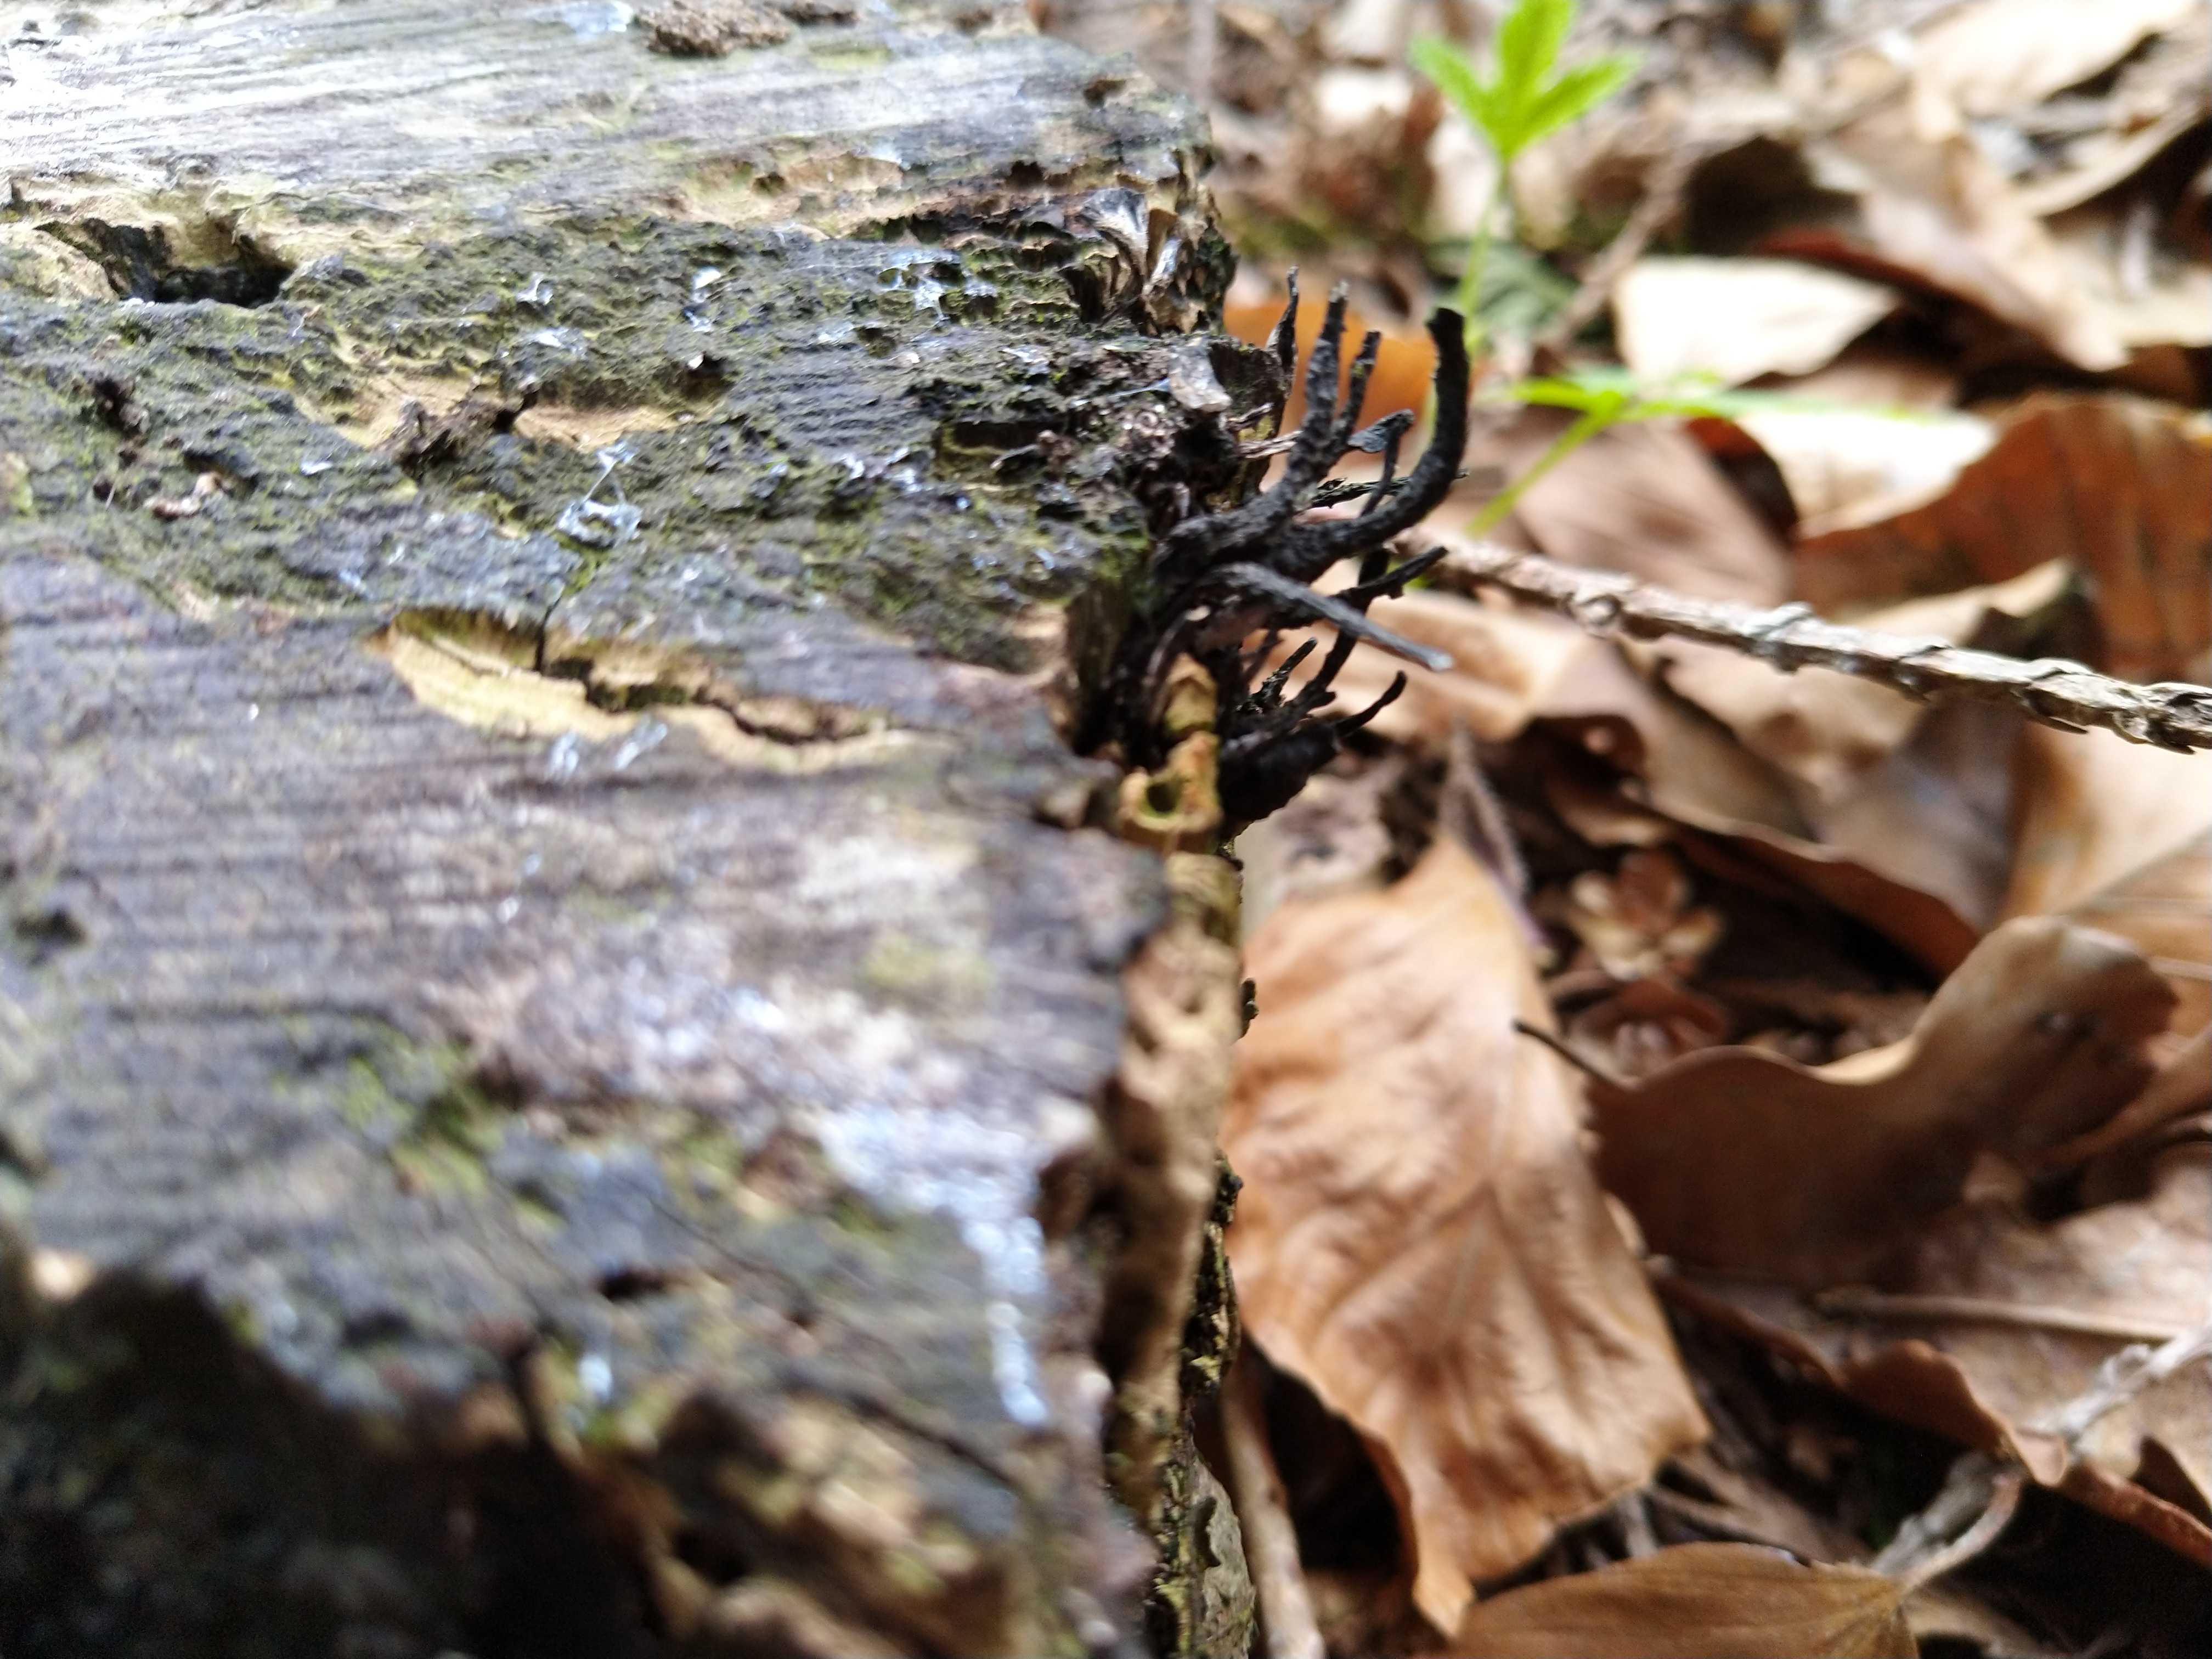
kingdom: Fungi
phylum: Ascomycota
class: Sordariomycetes
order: Xylariales
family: Xylariaceae
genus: Xylaria
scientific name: Xylaria hypoxylon
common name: grenet stødsvamp
